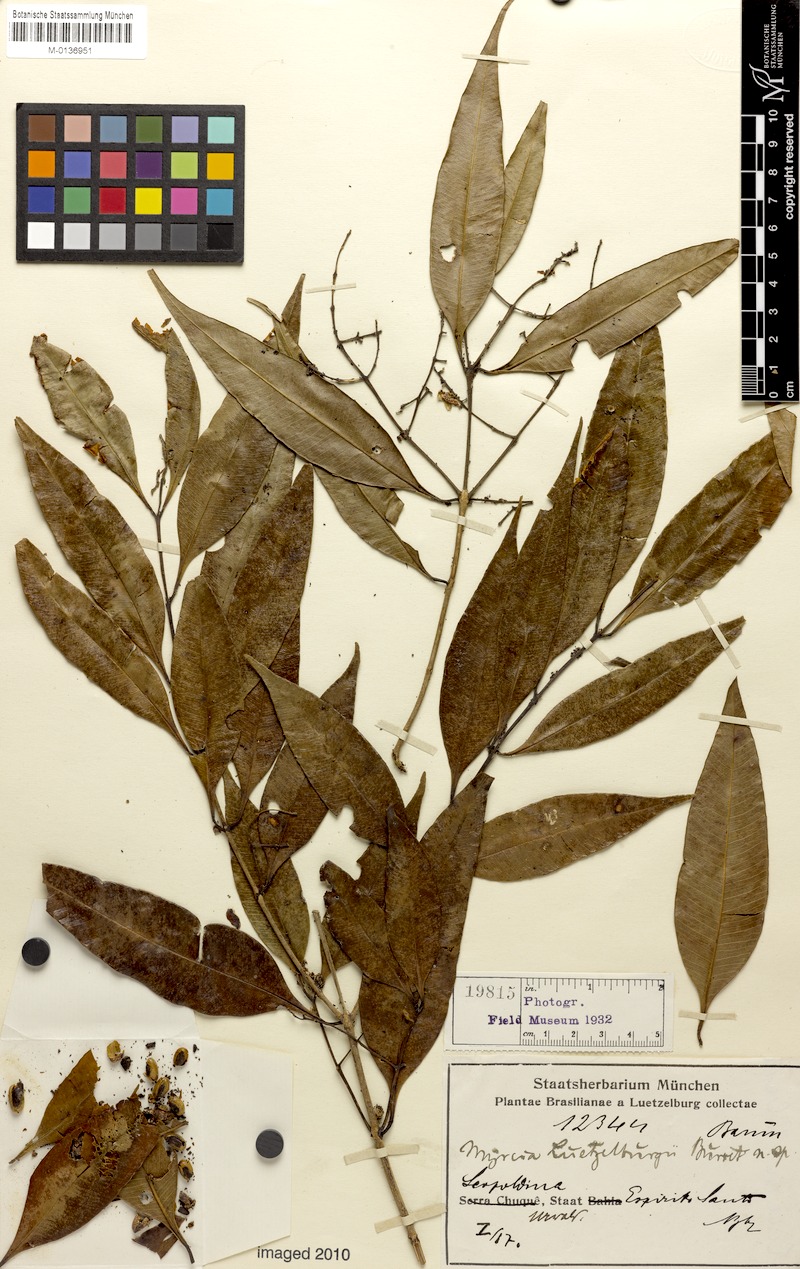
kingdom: Plantae
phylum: Tracheophyta
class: Magnoliopsida
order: Myrtales
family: Myrtaceae
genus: Myrcia
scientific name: Myrcia splendens
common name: Surinam cherry
